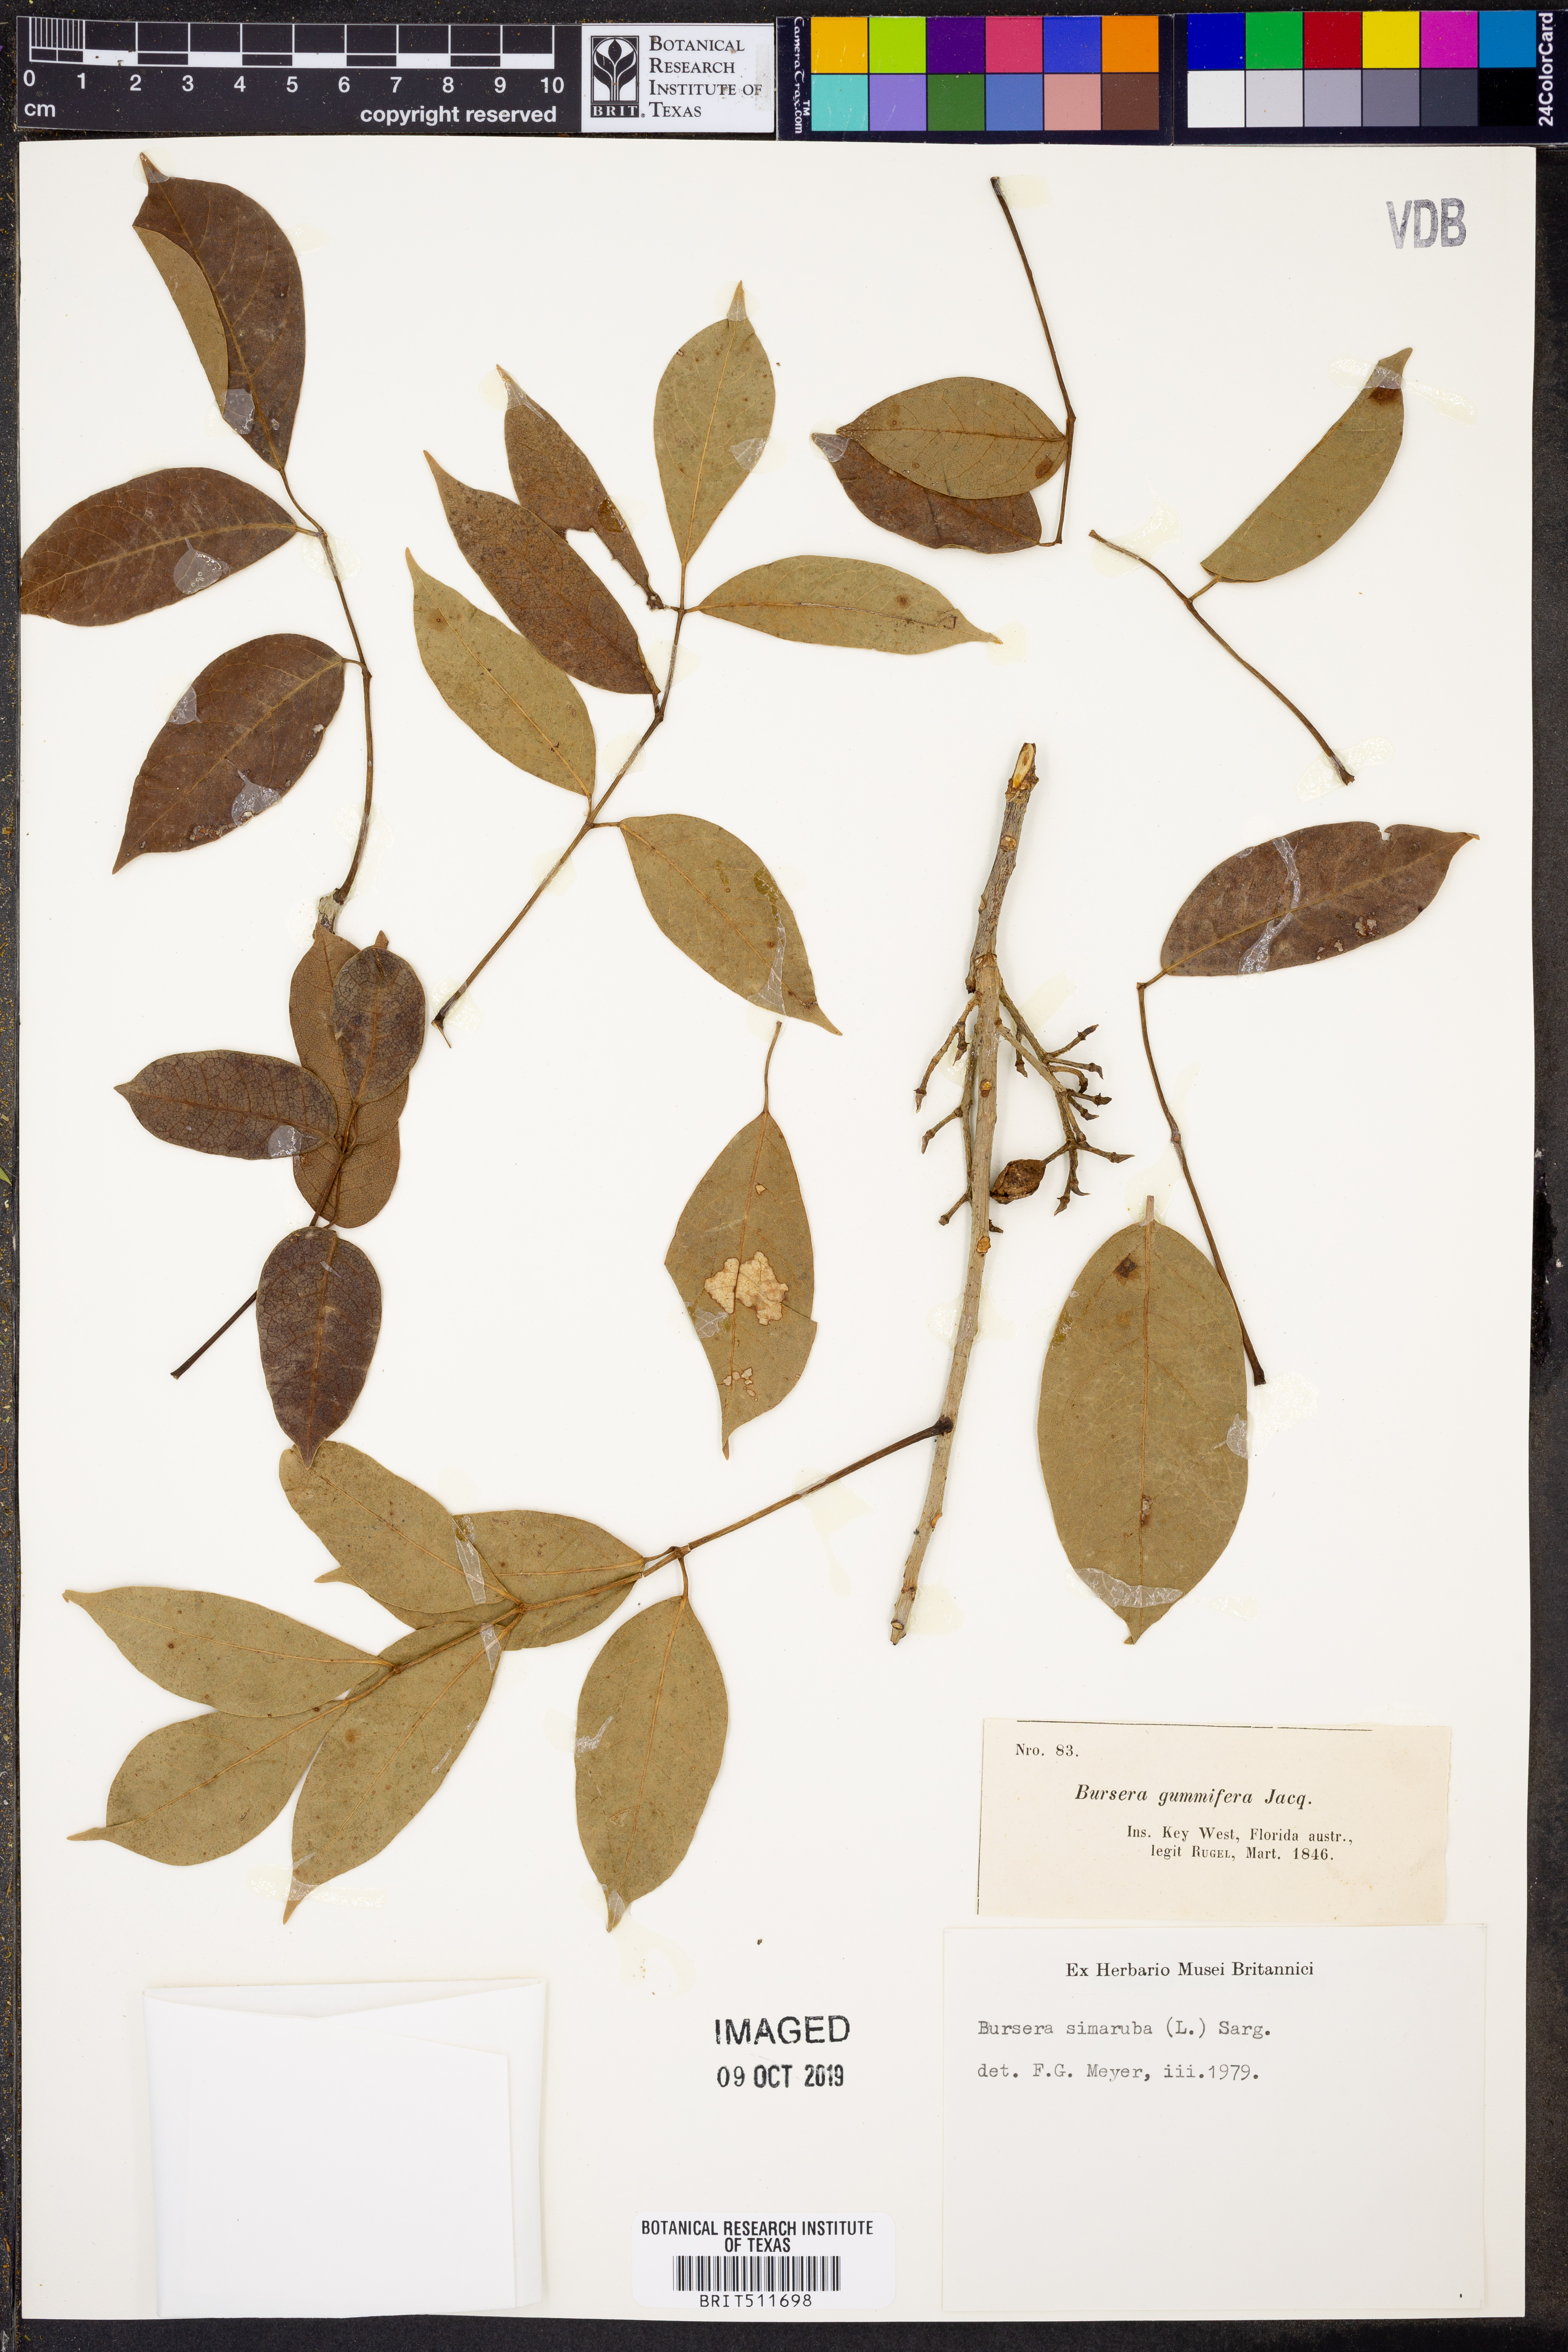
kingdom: Plantae
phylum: Tracheophyta
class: Magnoliopsida
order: Sapindales
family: Burseraceae
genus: Bursera
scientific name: Bursera simaruba
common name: Turpentine tree
